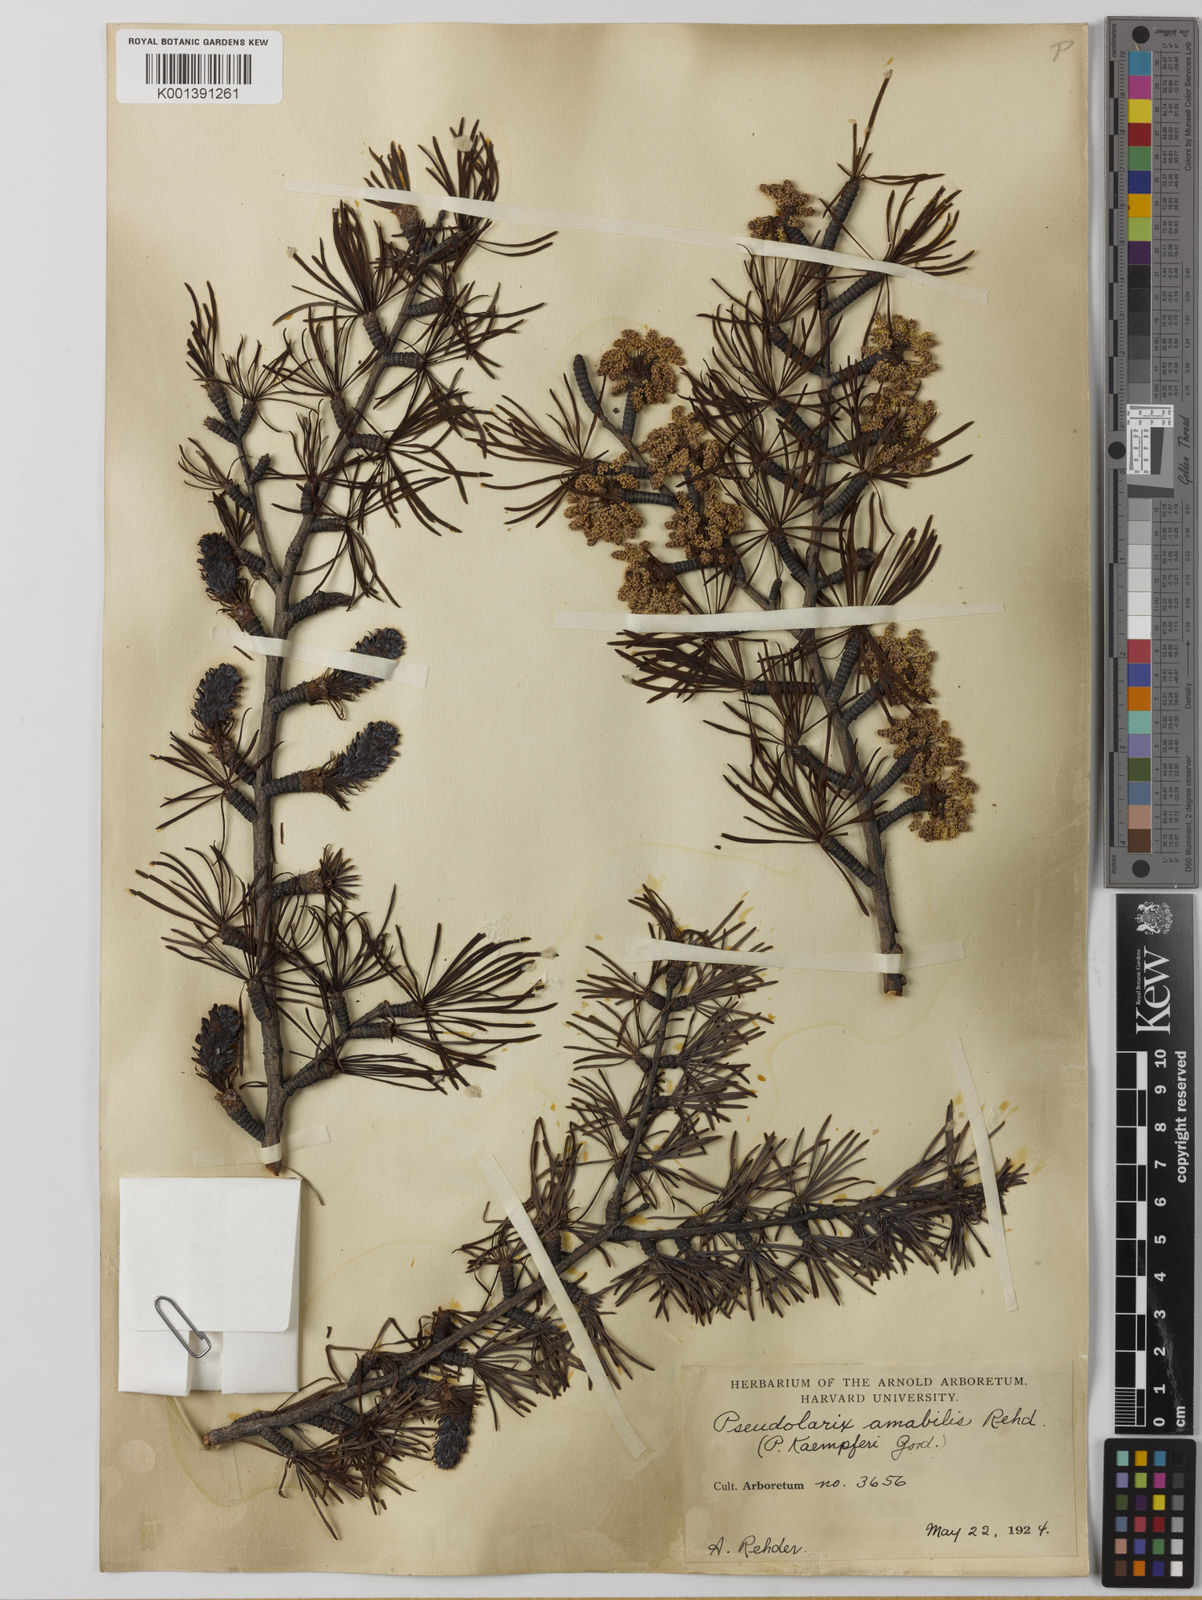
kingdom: Plantae
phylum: Tracheophyta
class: Pinopsida
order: Pinales
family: Pinaceae
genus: Pseudolarix
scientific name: Pseudolarix amabilis
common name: Chinese golden larch
